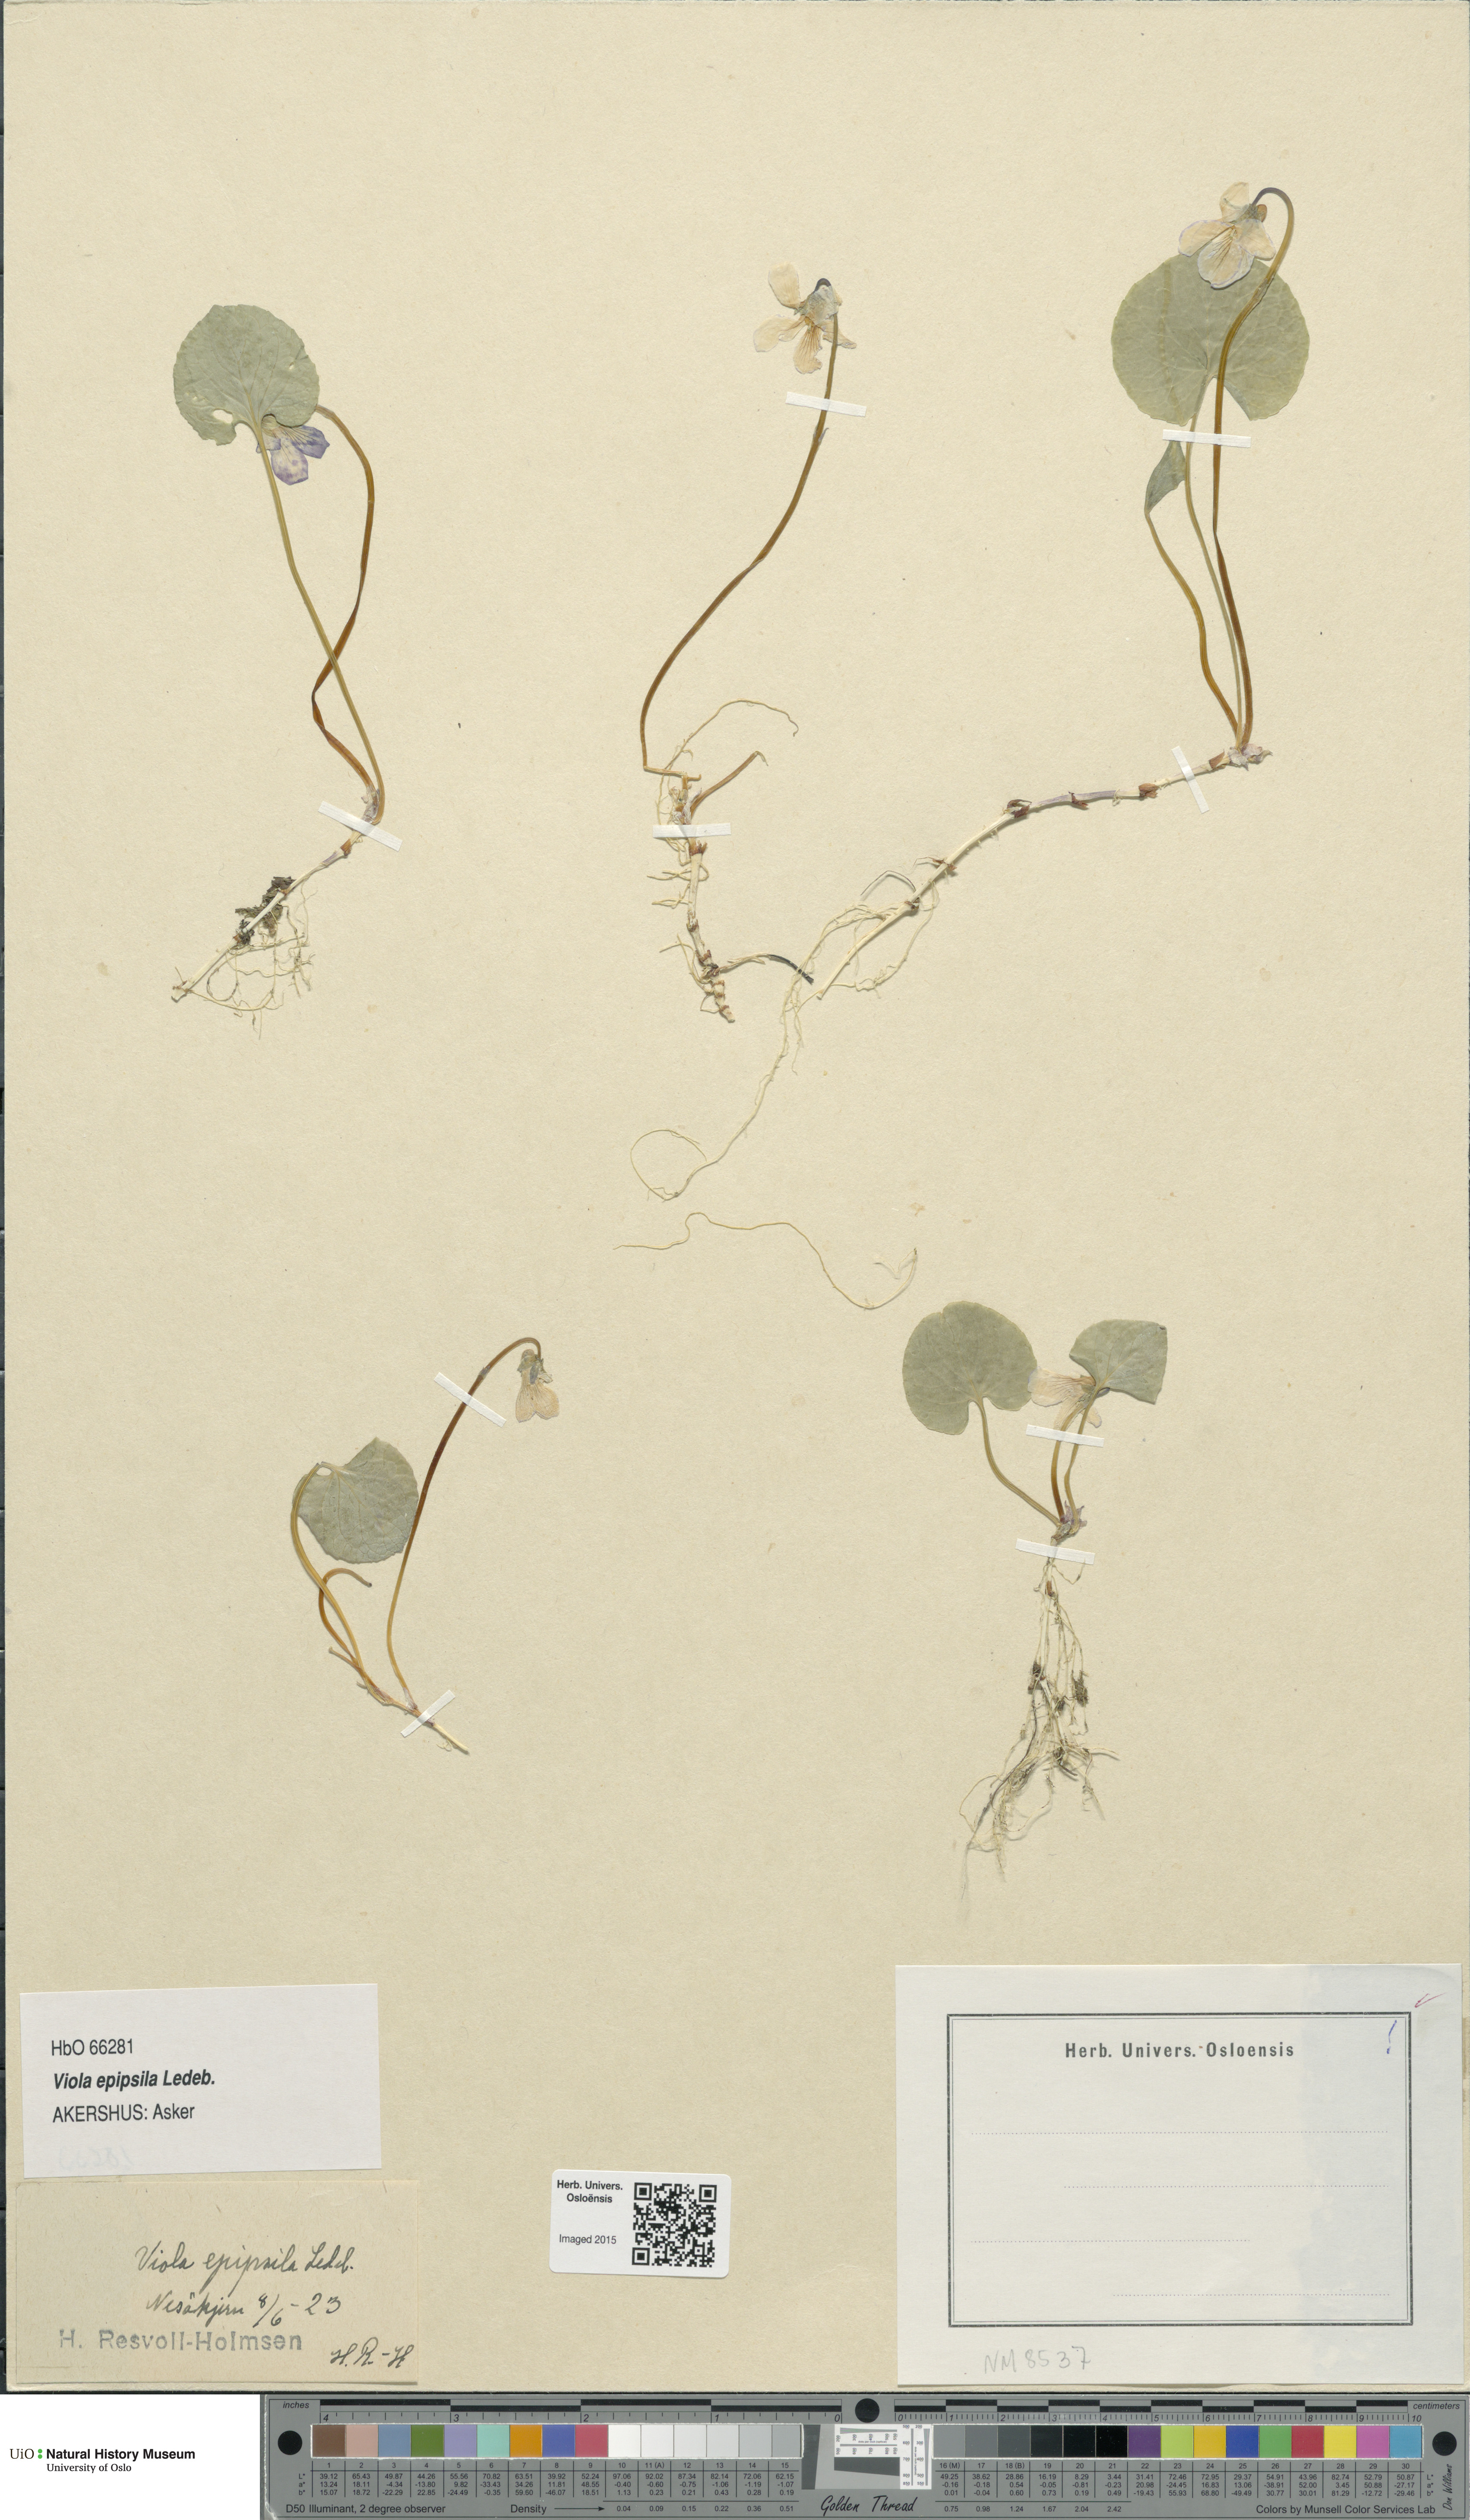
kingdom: Plantae
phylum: Tracheophyta
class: Magnoliopsida
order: Malpighiales
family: Violaceae
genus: Viola
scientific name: Viola epipsila
